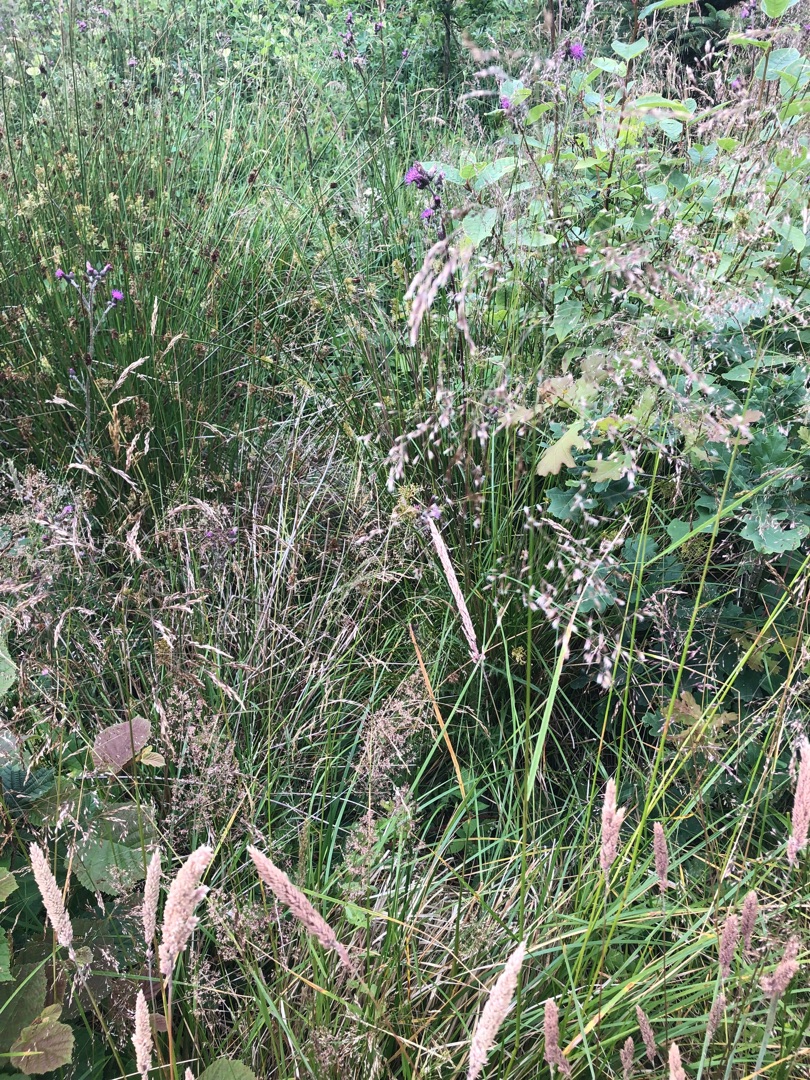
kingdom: Plantae
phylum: Tracheophyta
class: Liliopsida
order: Poales
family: Poaceae
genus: Deschampsia
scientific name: Deschampsia cespitosa
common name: Mose-bunke
